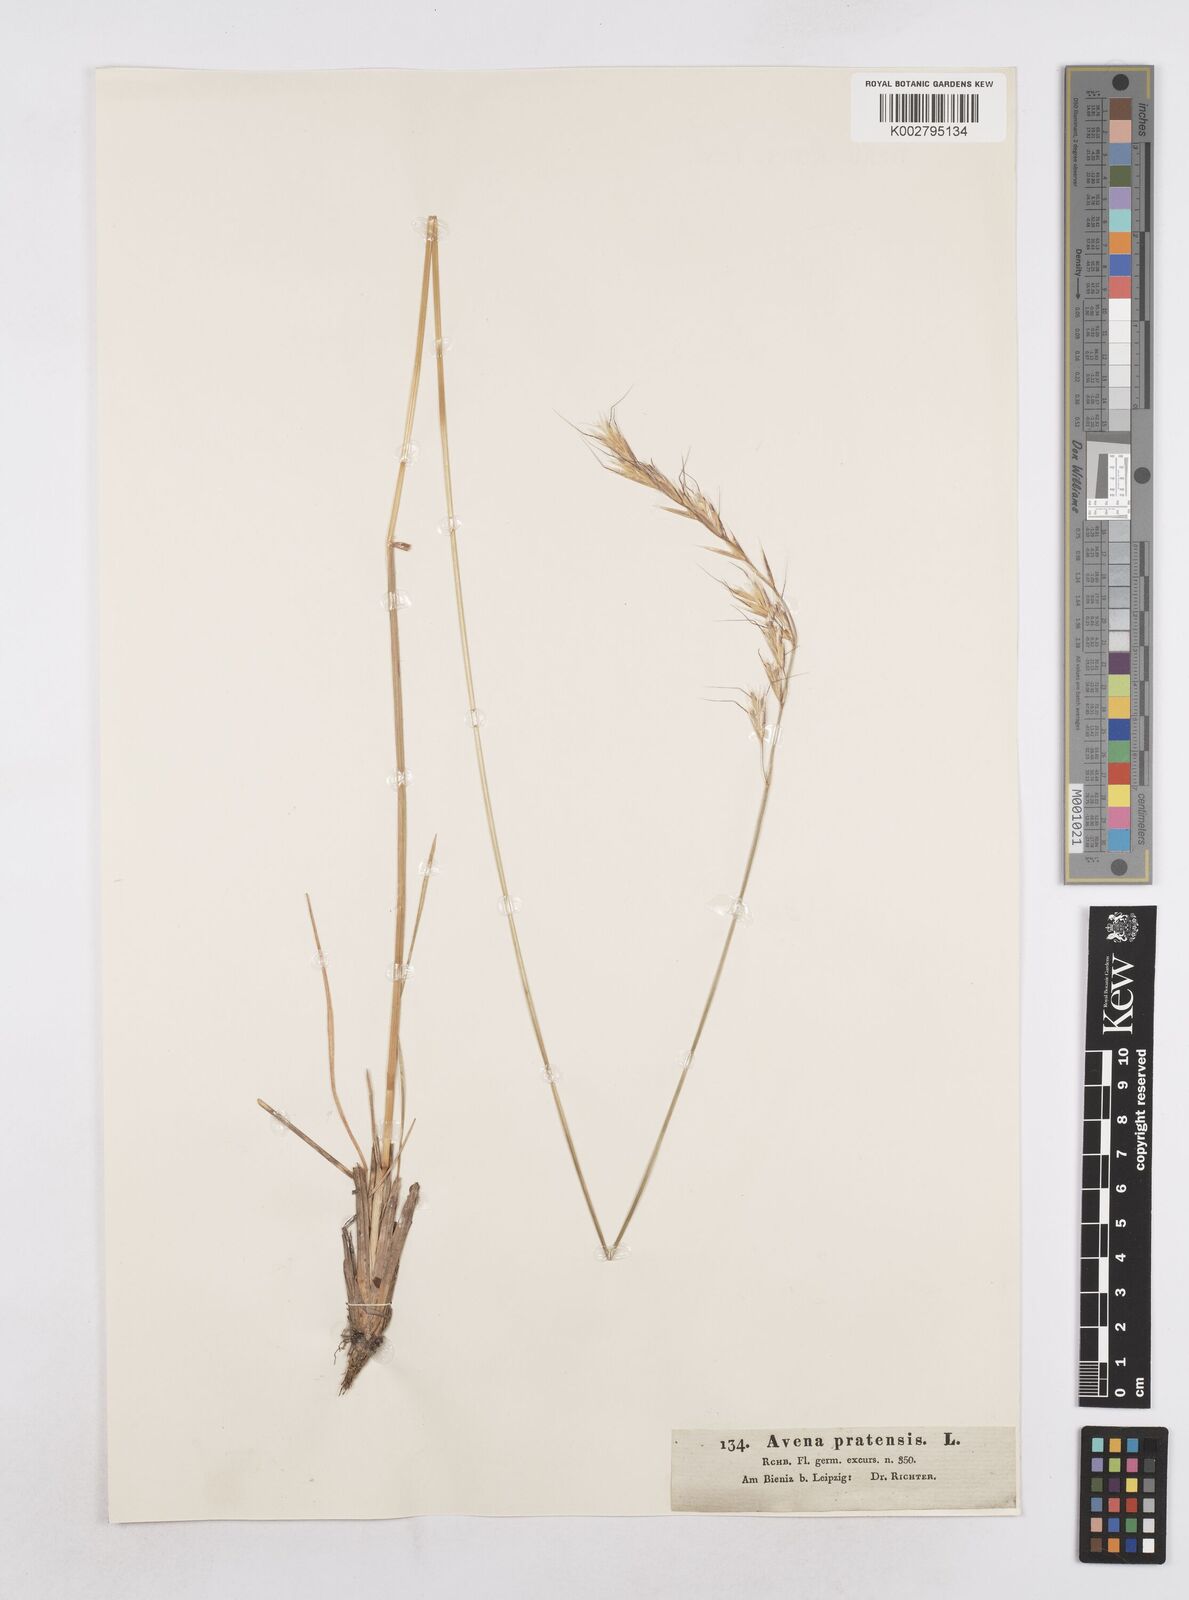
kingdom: Plantae
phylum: Tracheophyta
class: Liliopsida
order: Poales
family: Poaceae
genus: Helictochloa
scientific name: Helictochloa pratensis
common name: Meadow oat grass
